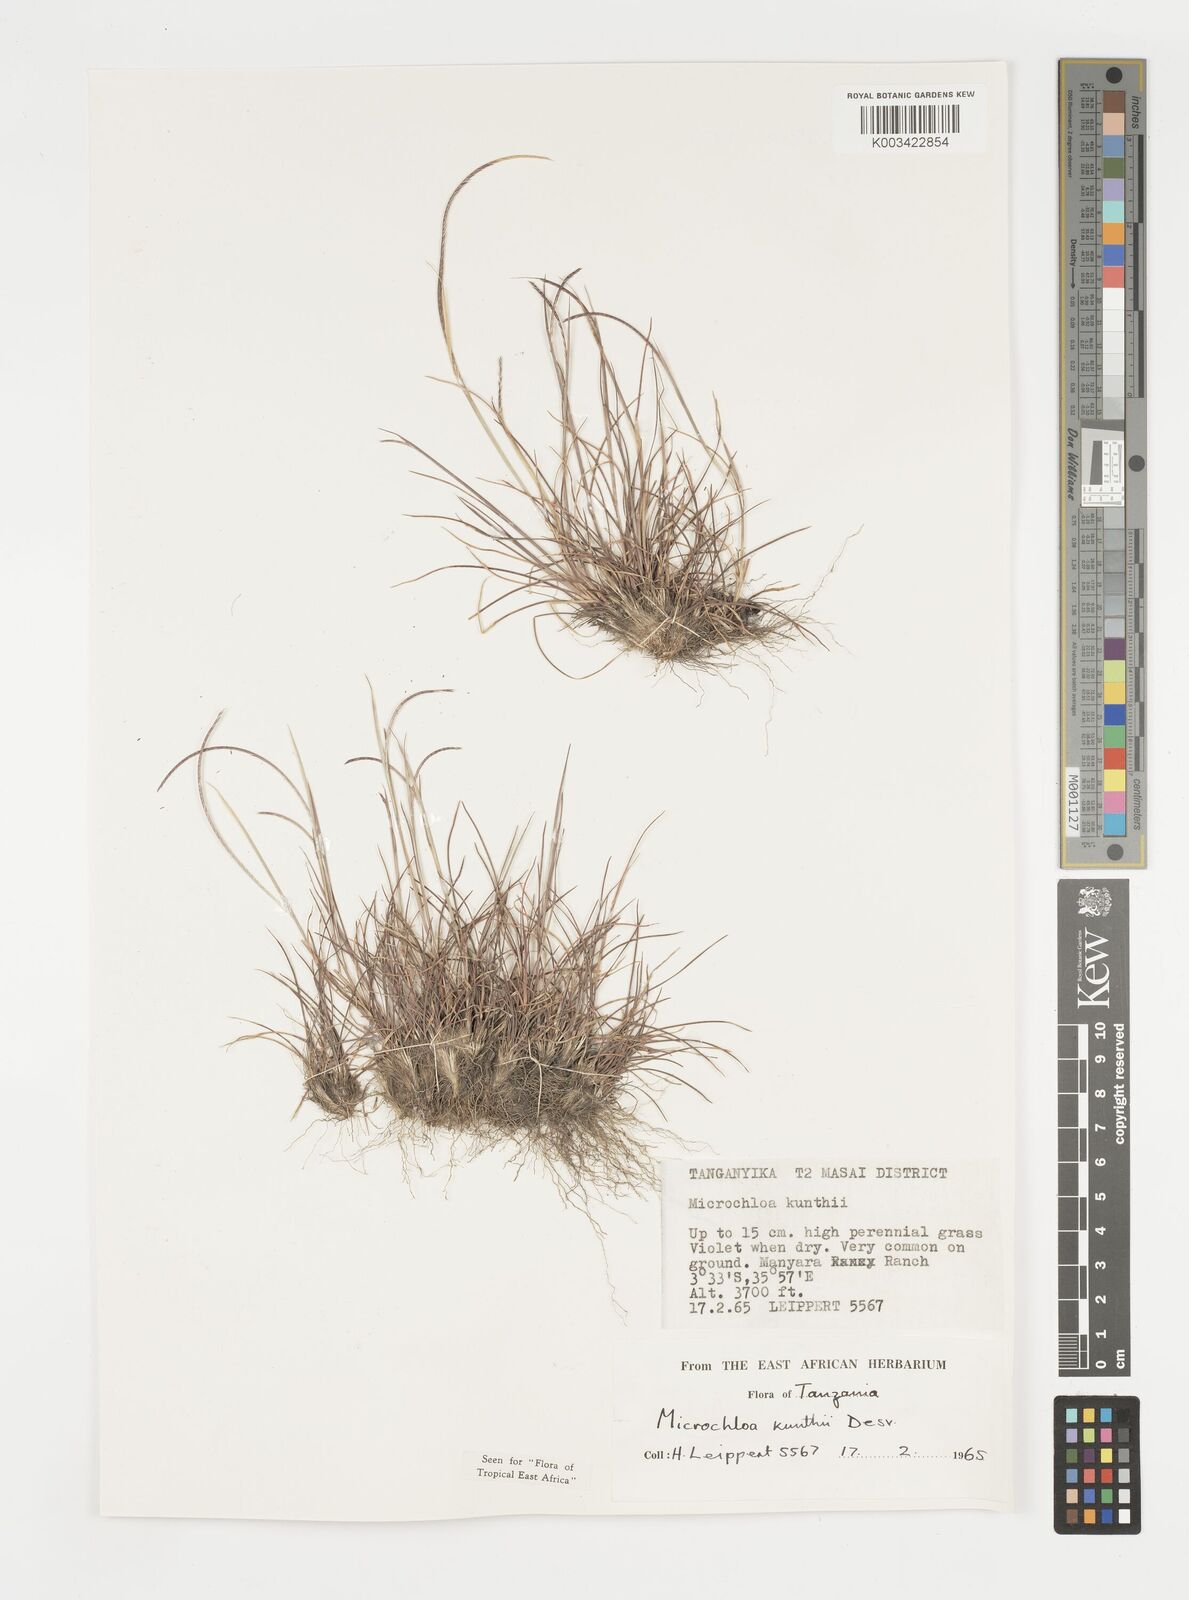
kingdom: Plantae
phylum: Tracheophyta
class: Liliopsida
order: Poales
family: Poaceae
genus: Microchloa
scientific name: Microchloa kunthii
